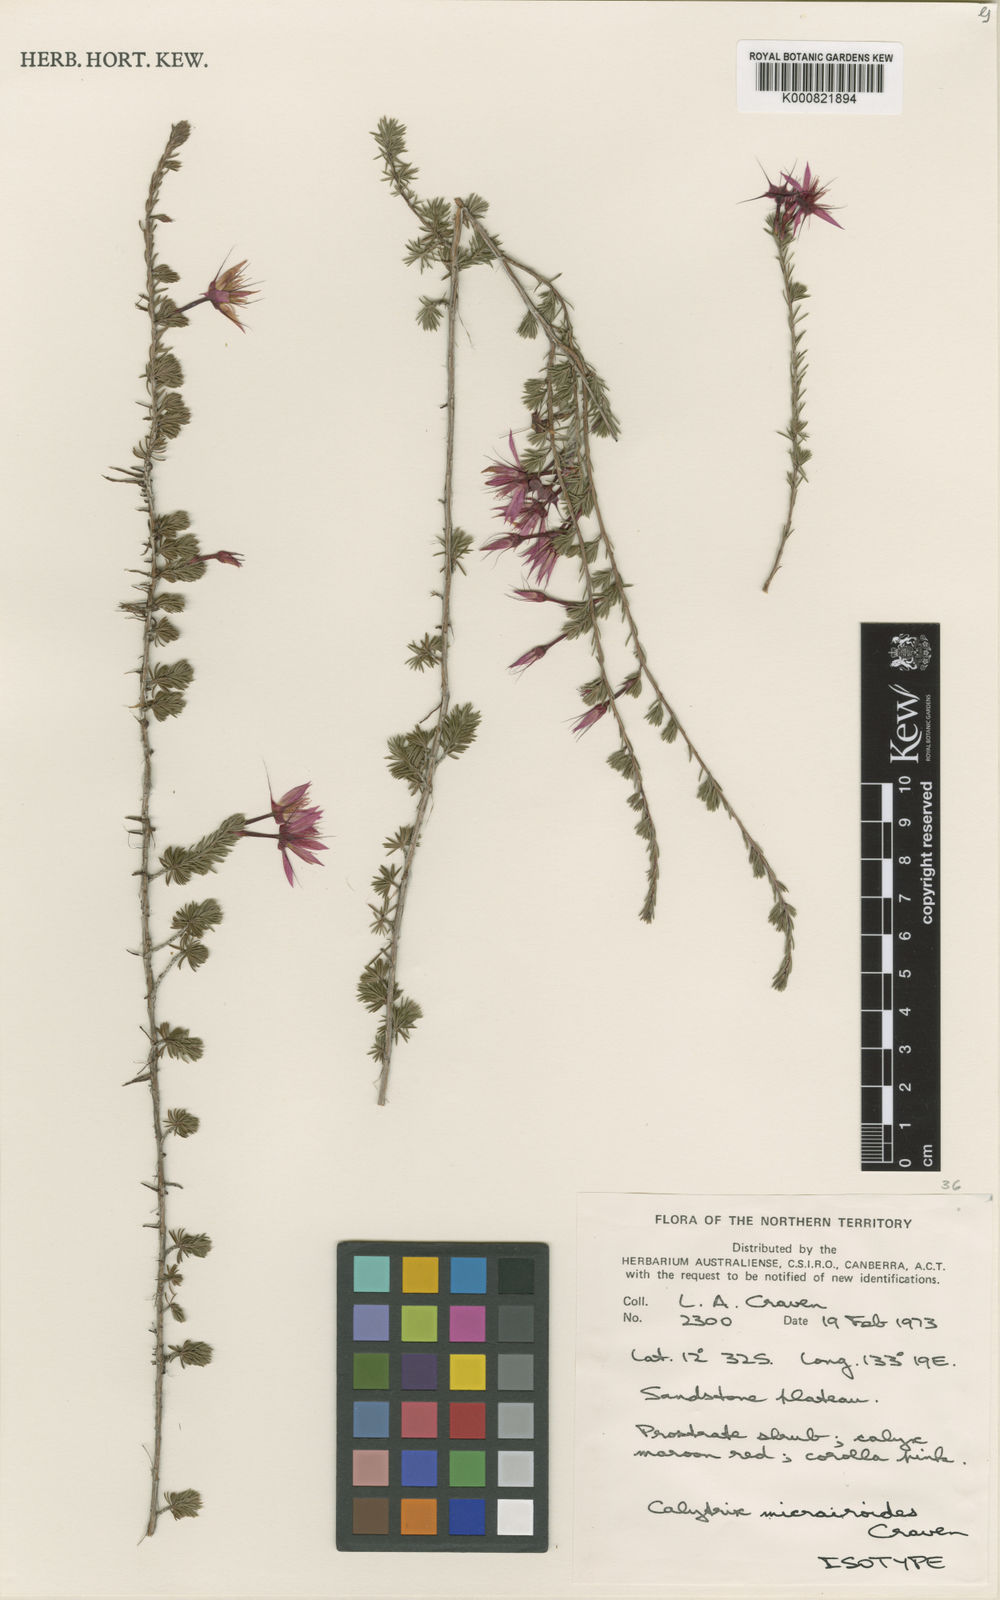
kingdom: Plantae
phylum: Tracheophyta
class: Magnoliopsida
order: Myrtales
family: Myrtaceae
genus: Calytrix
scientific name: Calytrix micrairoides
